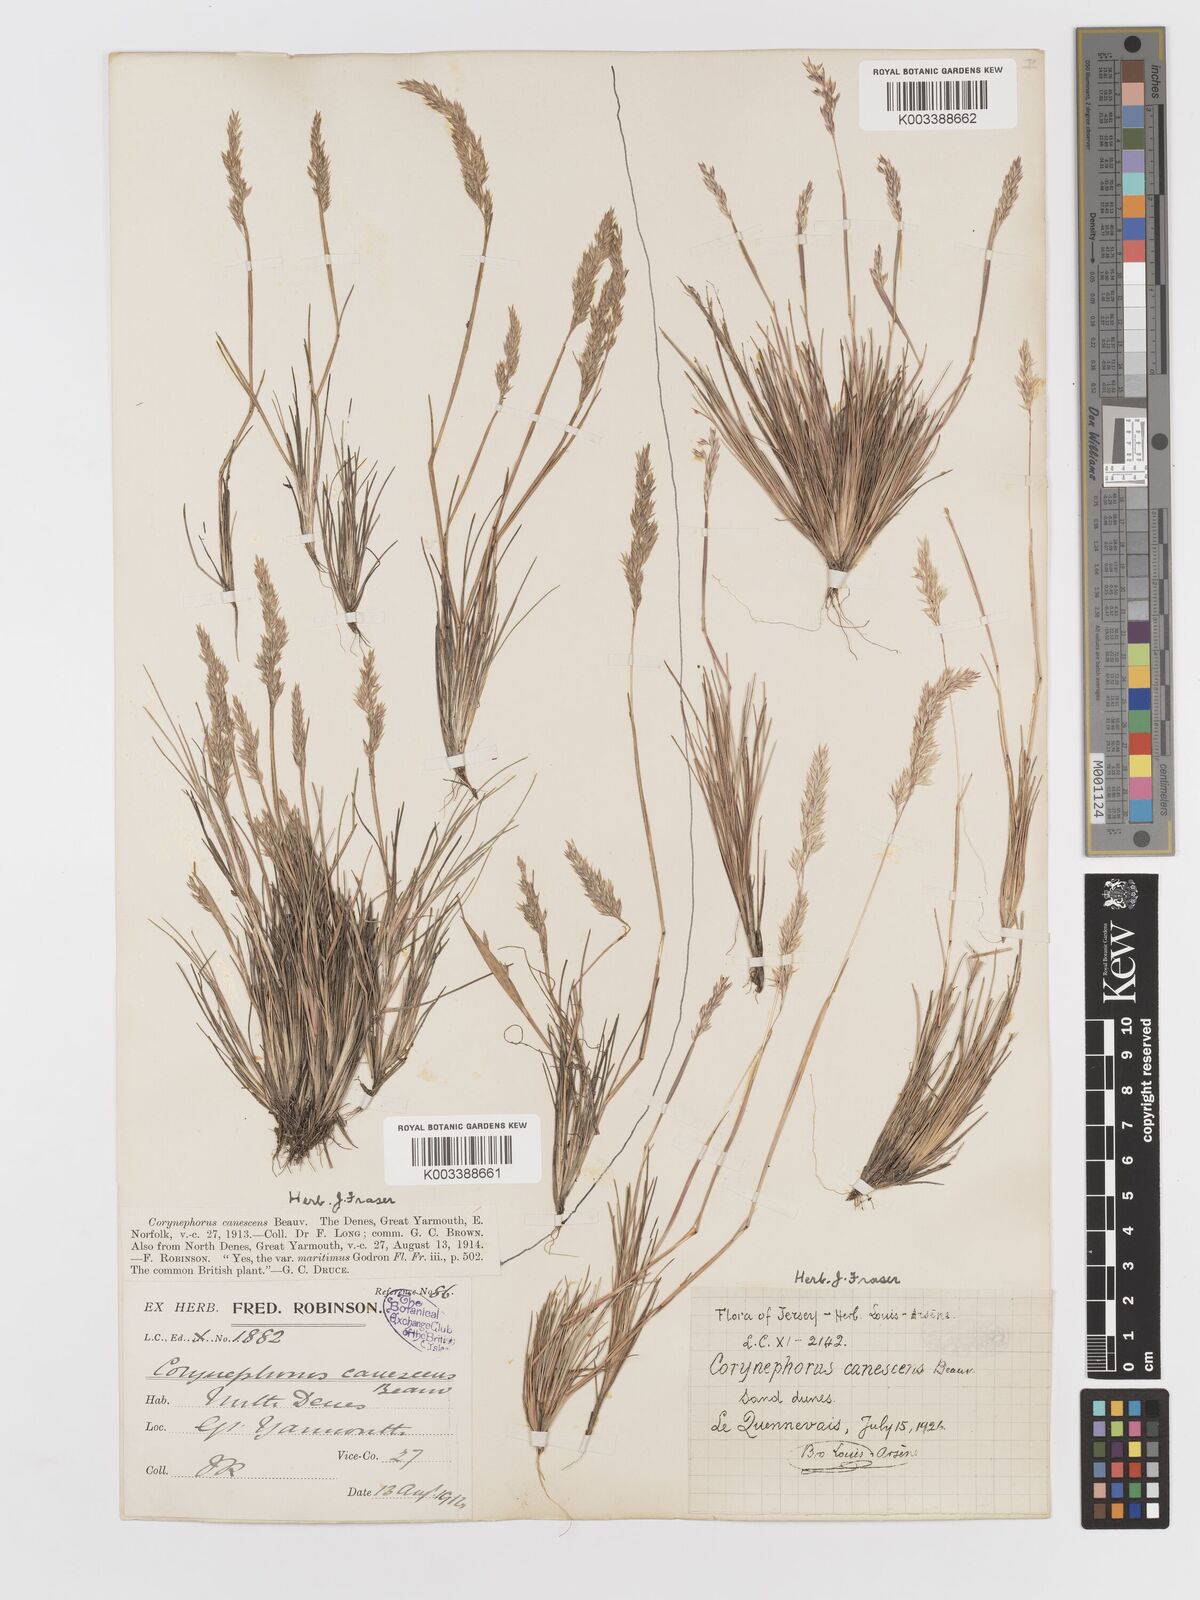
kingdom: Plantae
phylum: Tracheophyta
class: Liliopsida
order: Poales
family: Poaceae
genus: Corynephorus
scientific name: Corynephorus canescens
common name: Grey hair-grass
